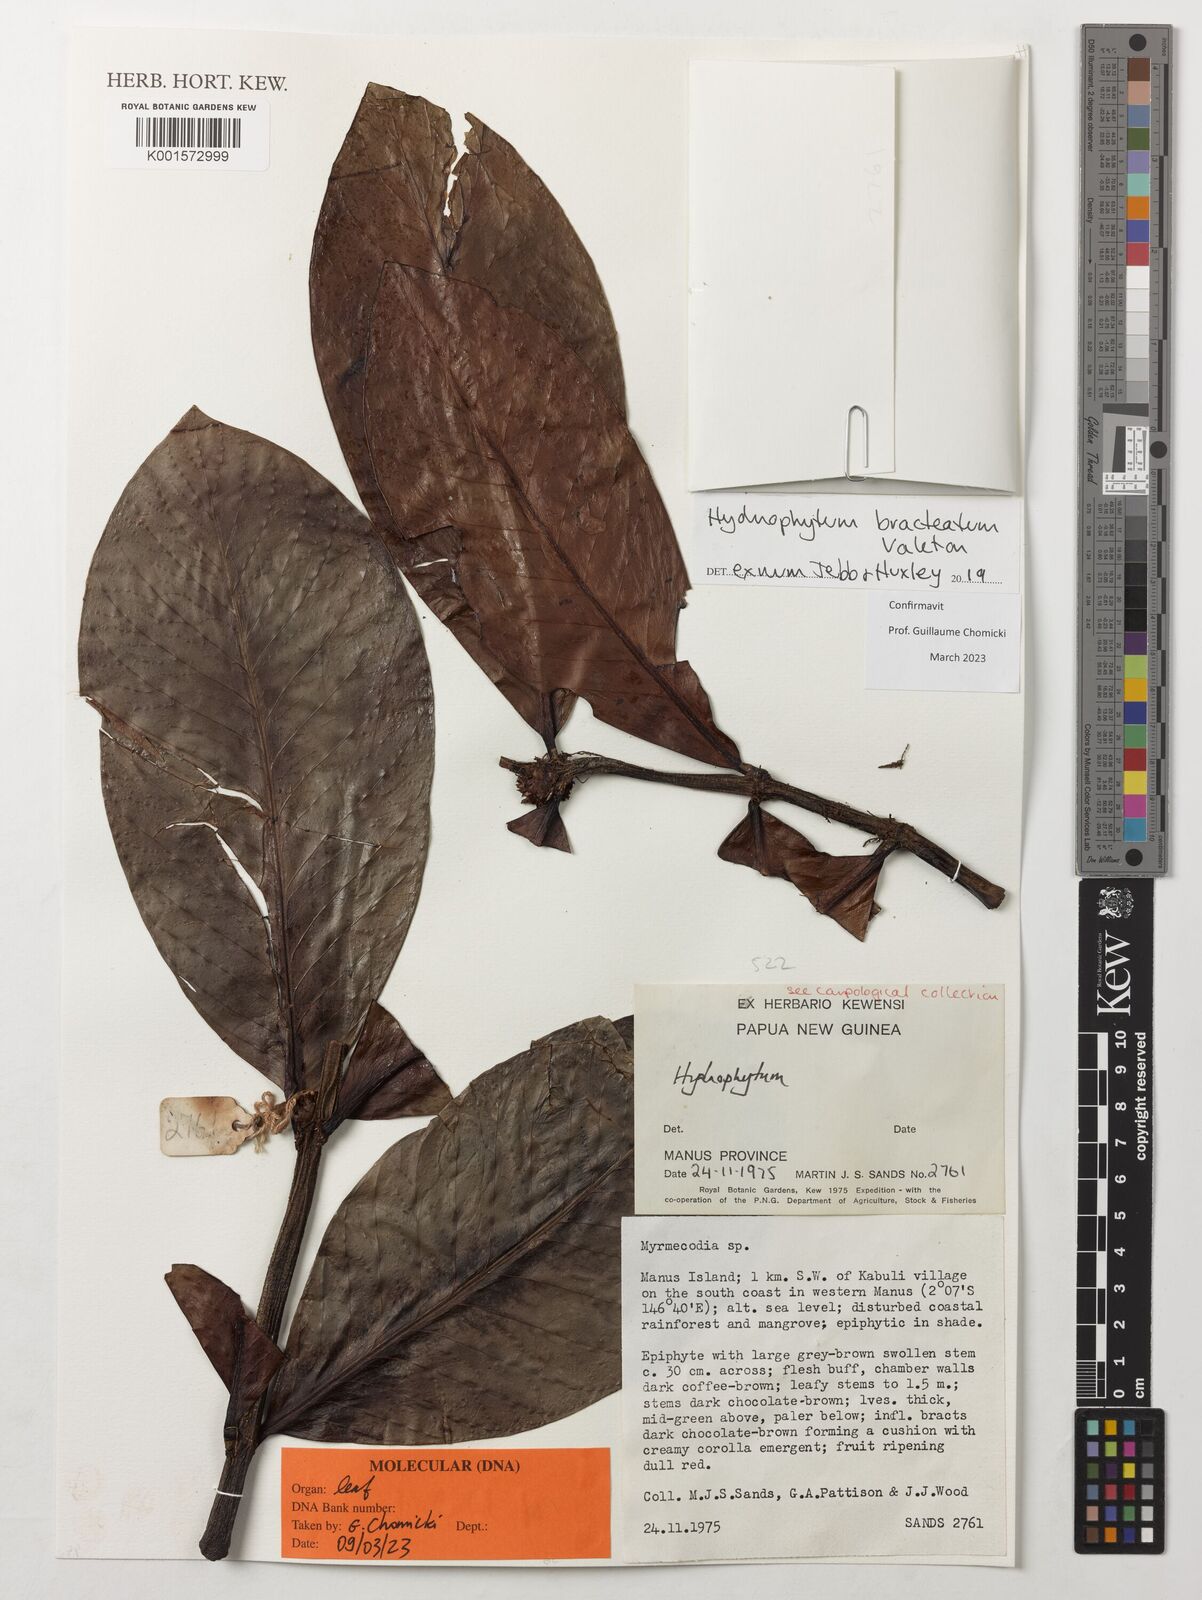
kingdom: Plantae
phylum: Tracheophyta
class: Magnoliopsida
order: Gentianales
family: Rubiaceae
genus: Hydnophytum
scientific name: Hydnophytum bracteatum
